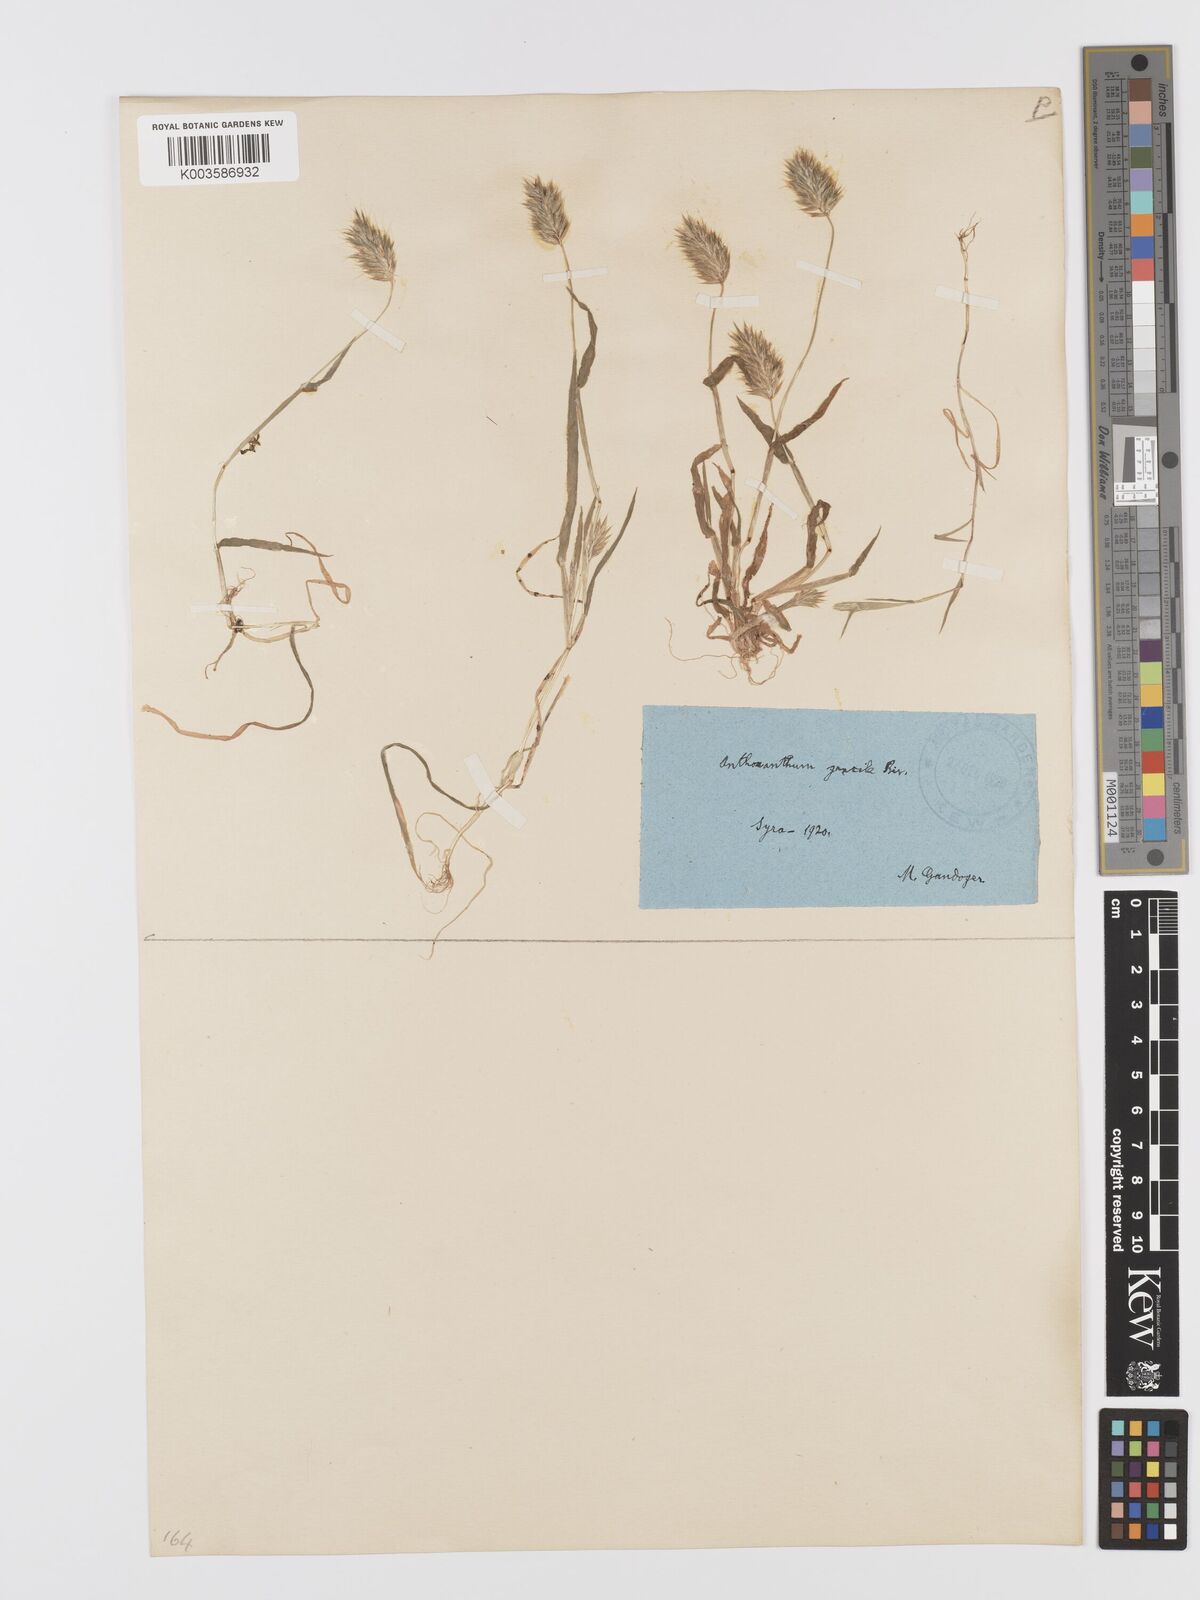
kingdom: Plantae
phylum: Tracheophyta
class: Liliopsida
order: Poales
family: Poaceae
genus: Anthoxanthum
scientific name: Anthoxanthum gracile
